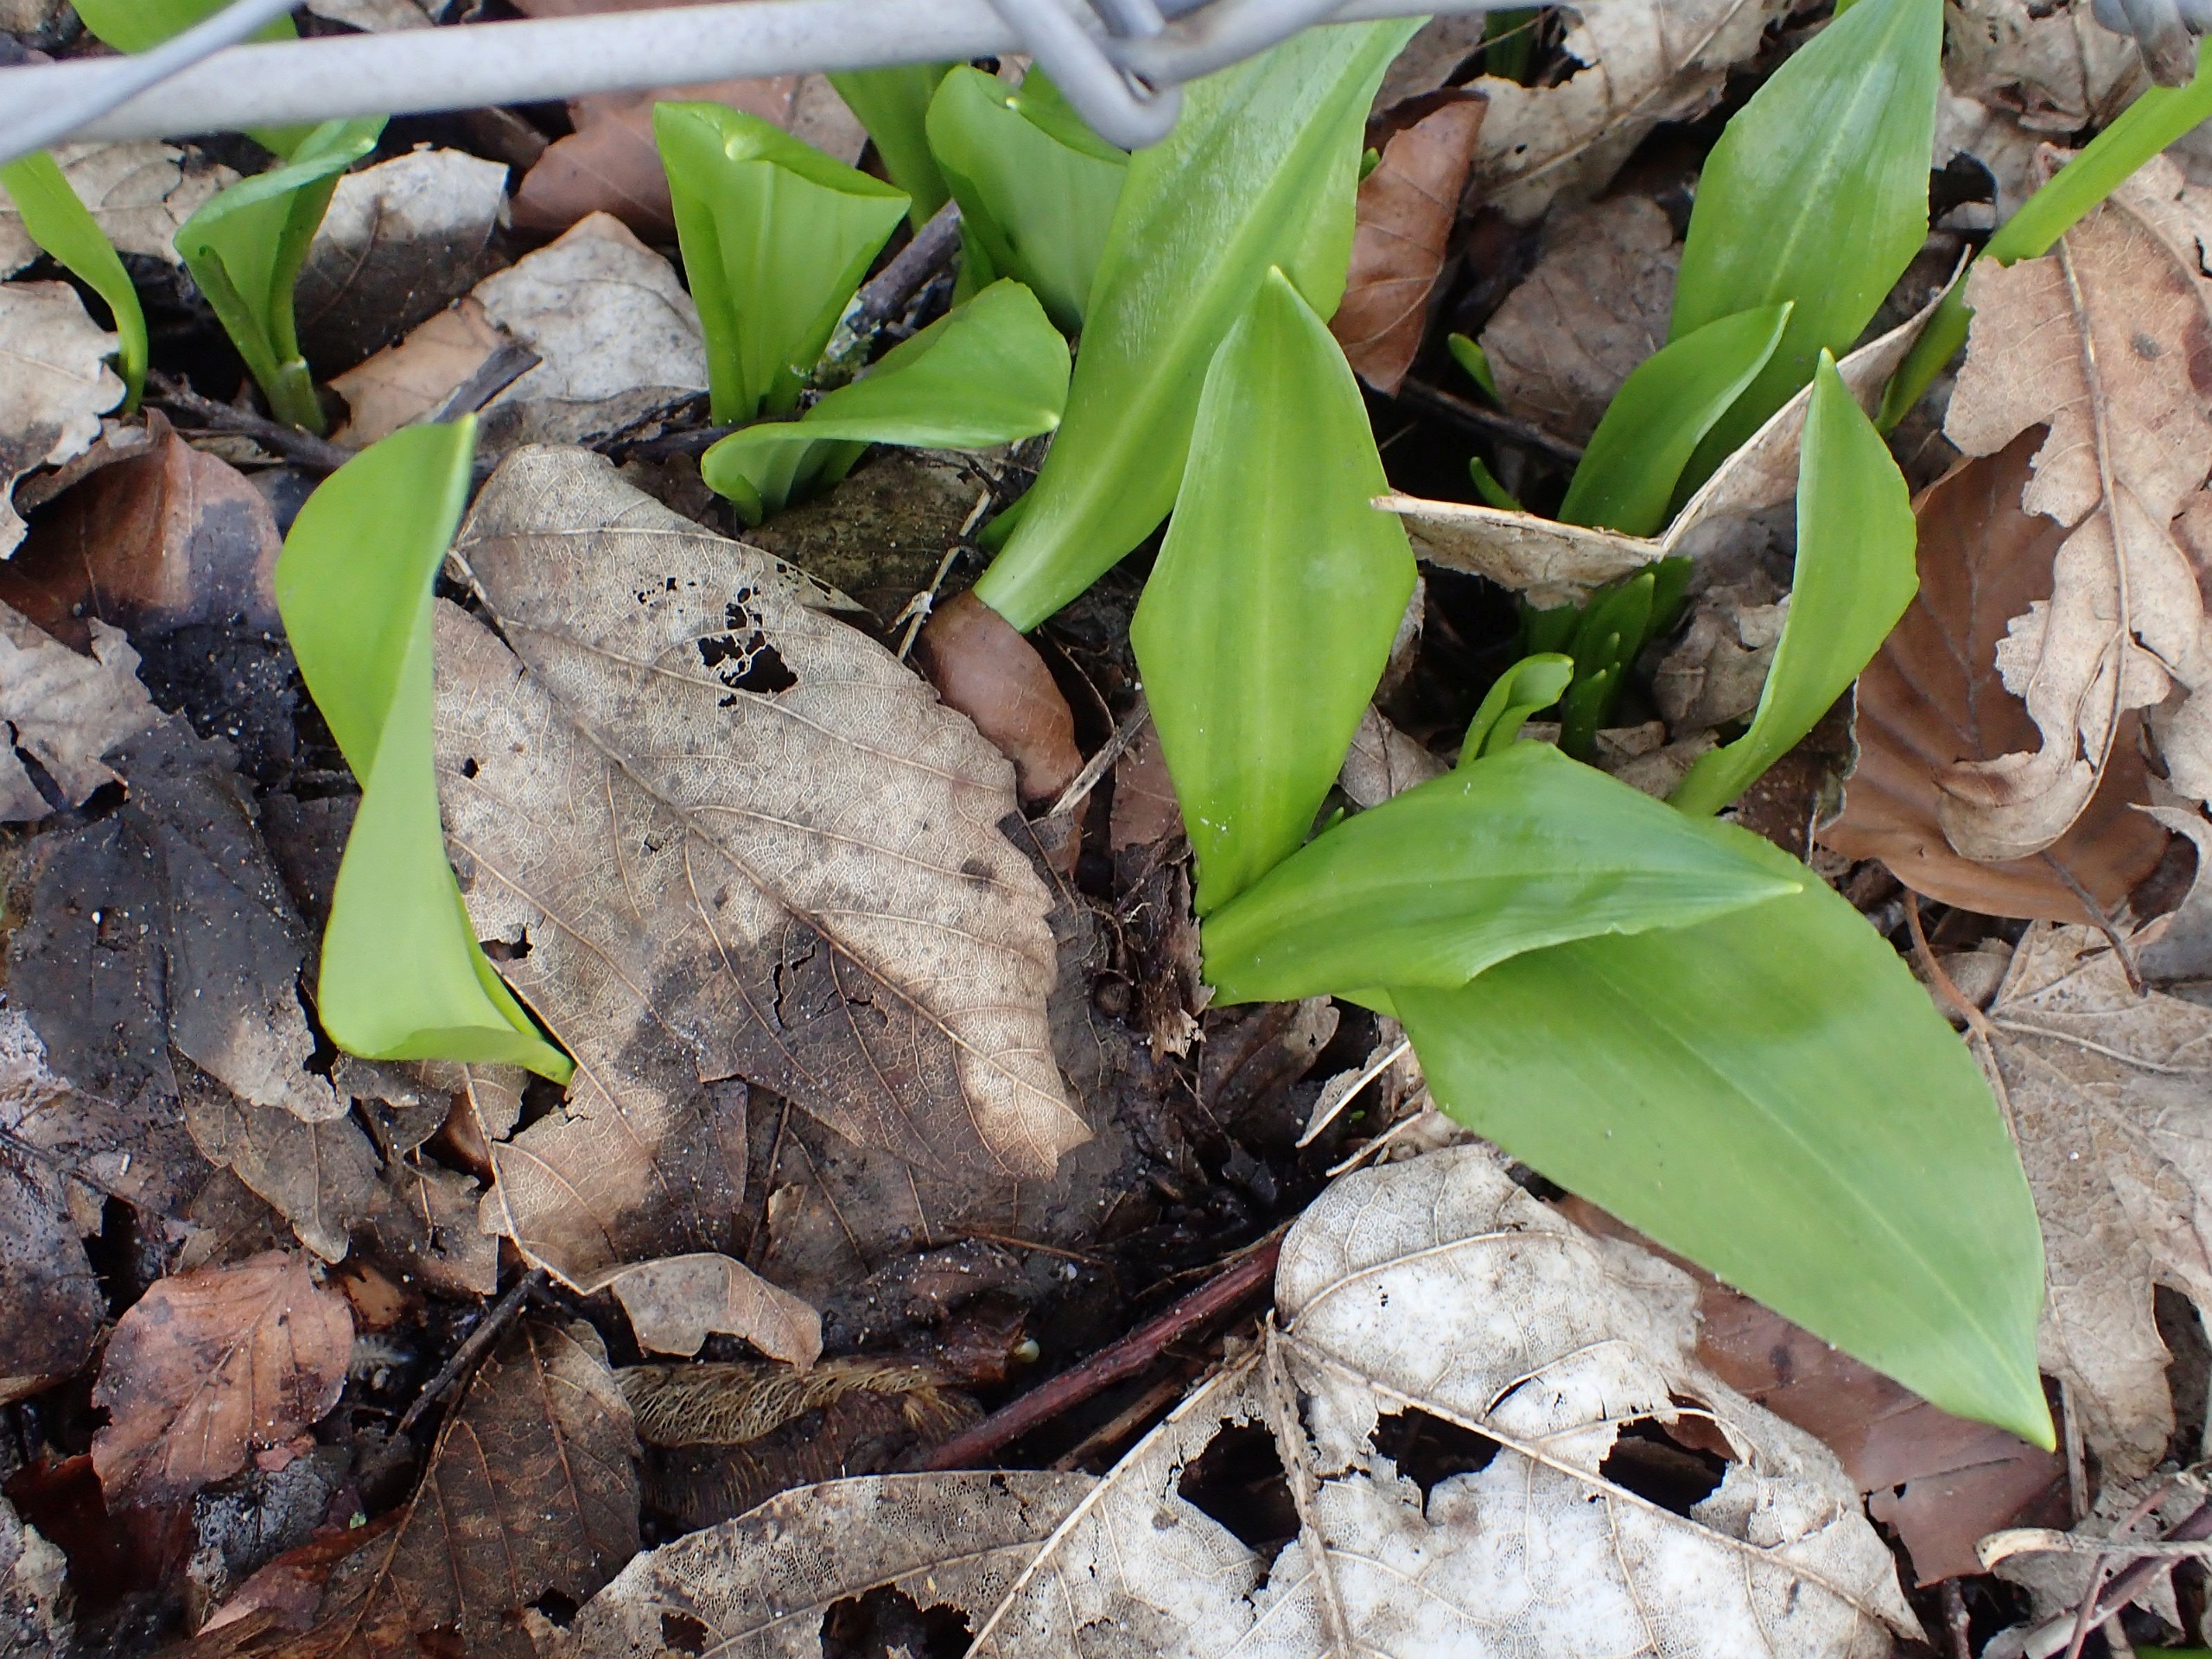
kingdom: Plantae
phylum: Tracheophyta
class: Liliopsida
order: Asparagales
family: Amaryllidaceae
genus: Allium
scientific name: Allium ursinum
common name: Rams-løg
